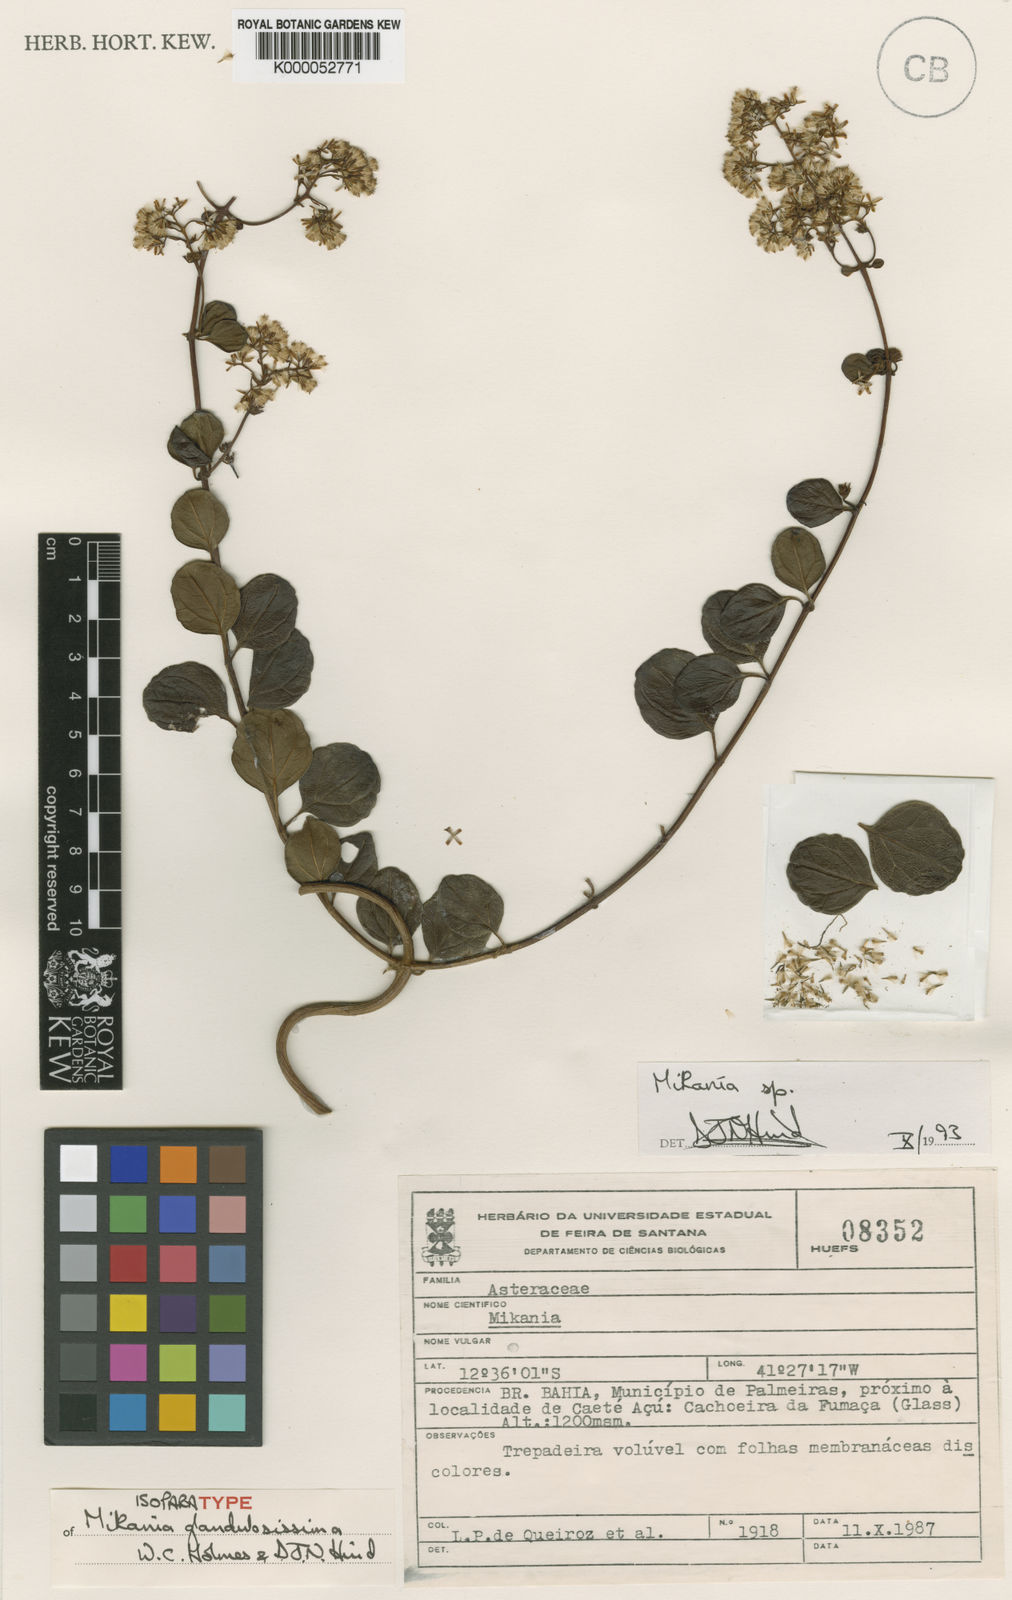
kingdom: Plantae
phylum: Tracheophyta
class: Magnoliopsida
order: Asterales
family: Asteraceae
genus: Mikania
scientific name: Mikania glandulosissima
